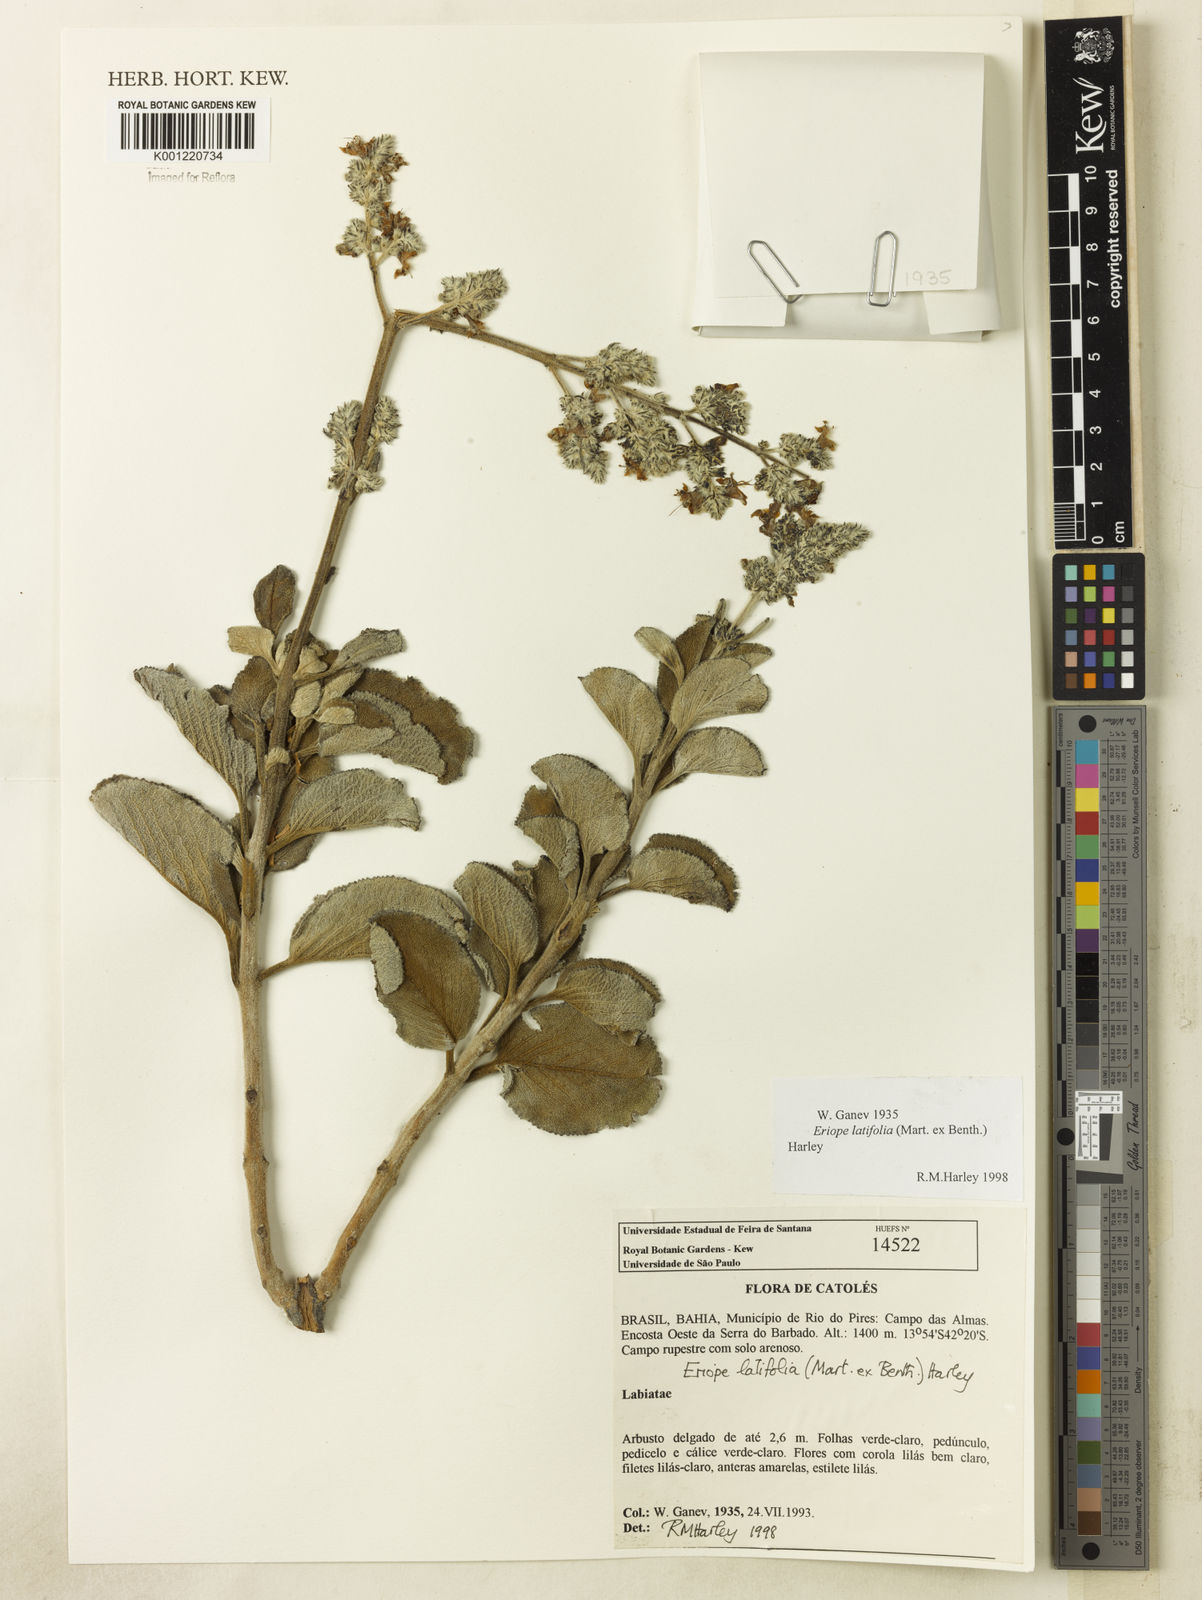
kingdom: Plantae
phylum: Tracheophyta
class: Magnoliopsida
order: Lamiales
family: Lamiaceae
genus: Eriope
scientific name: Eriope latifolia
